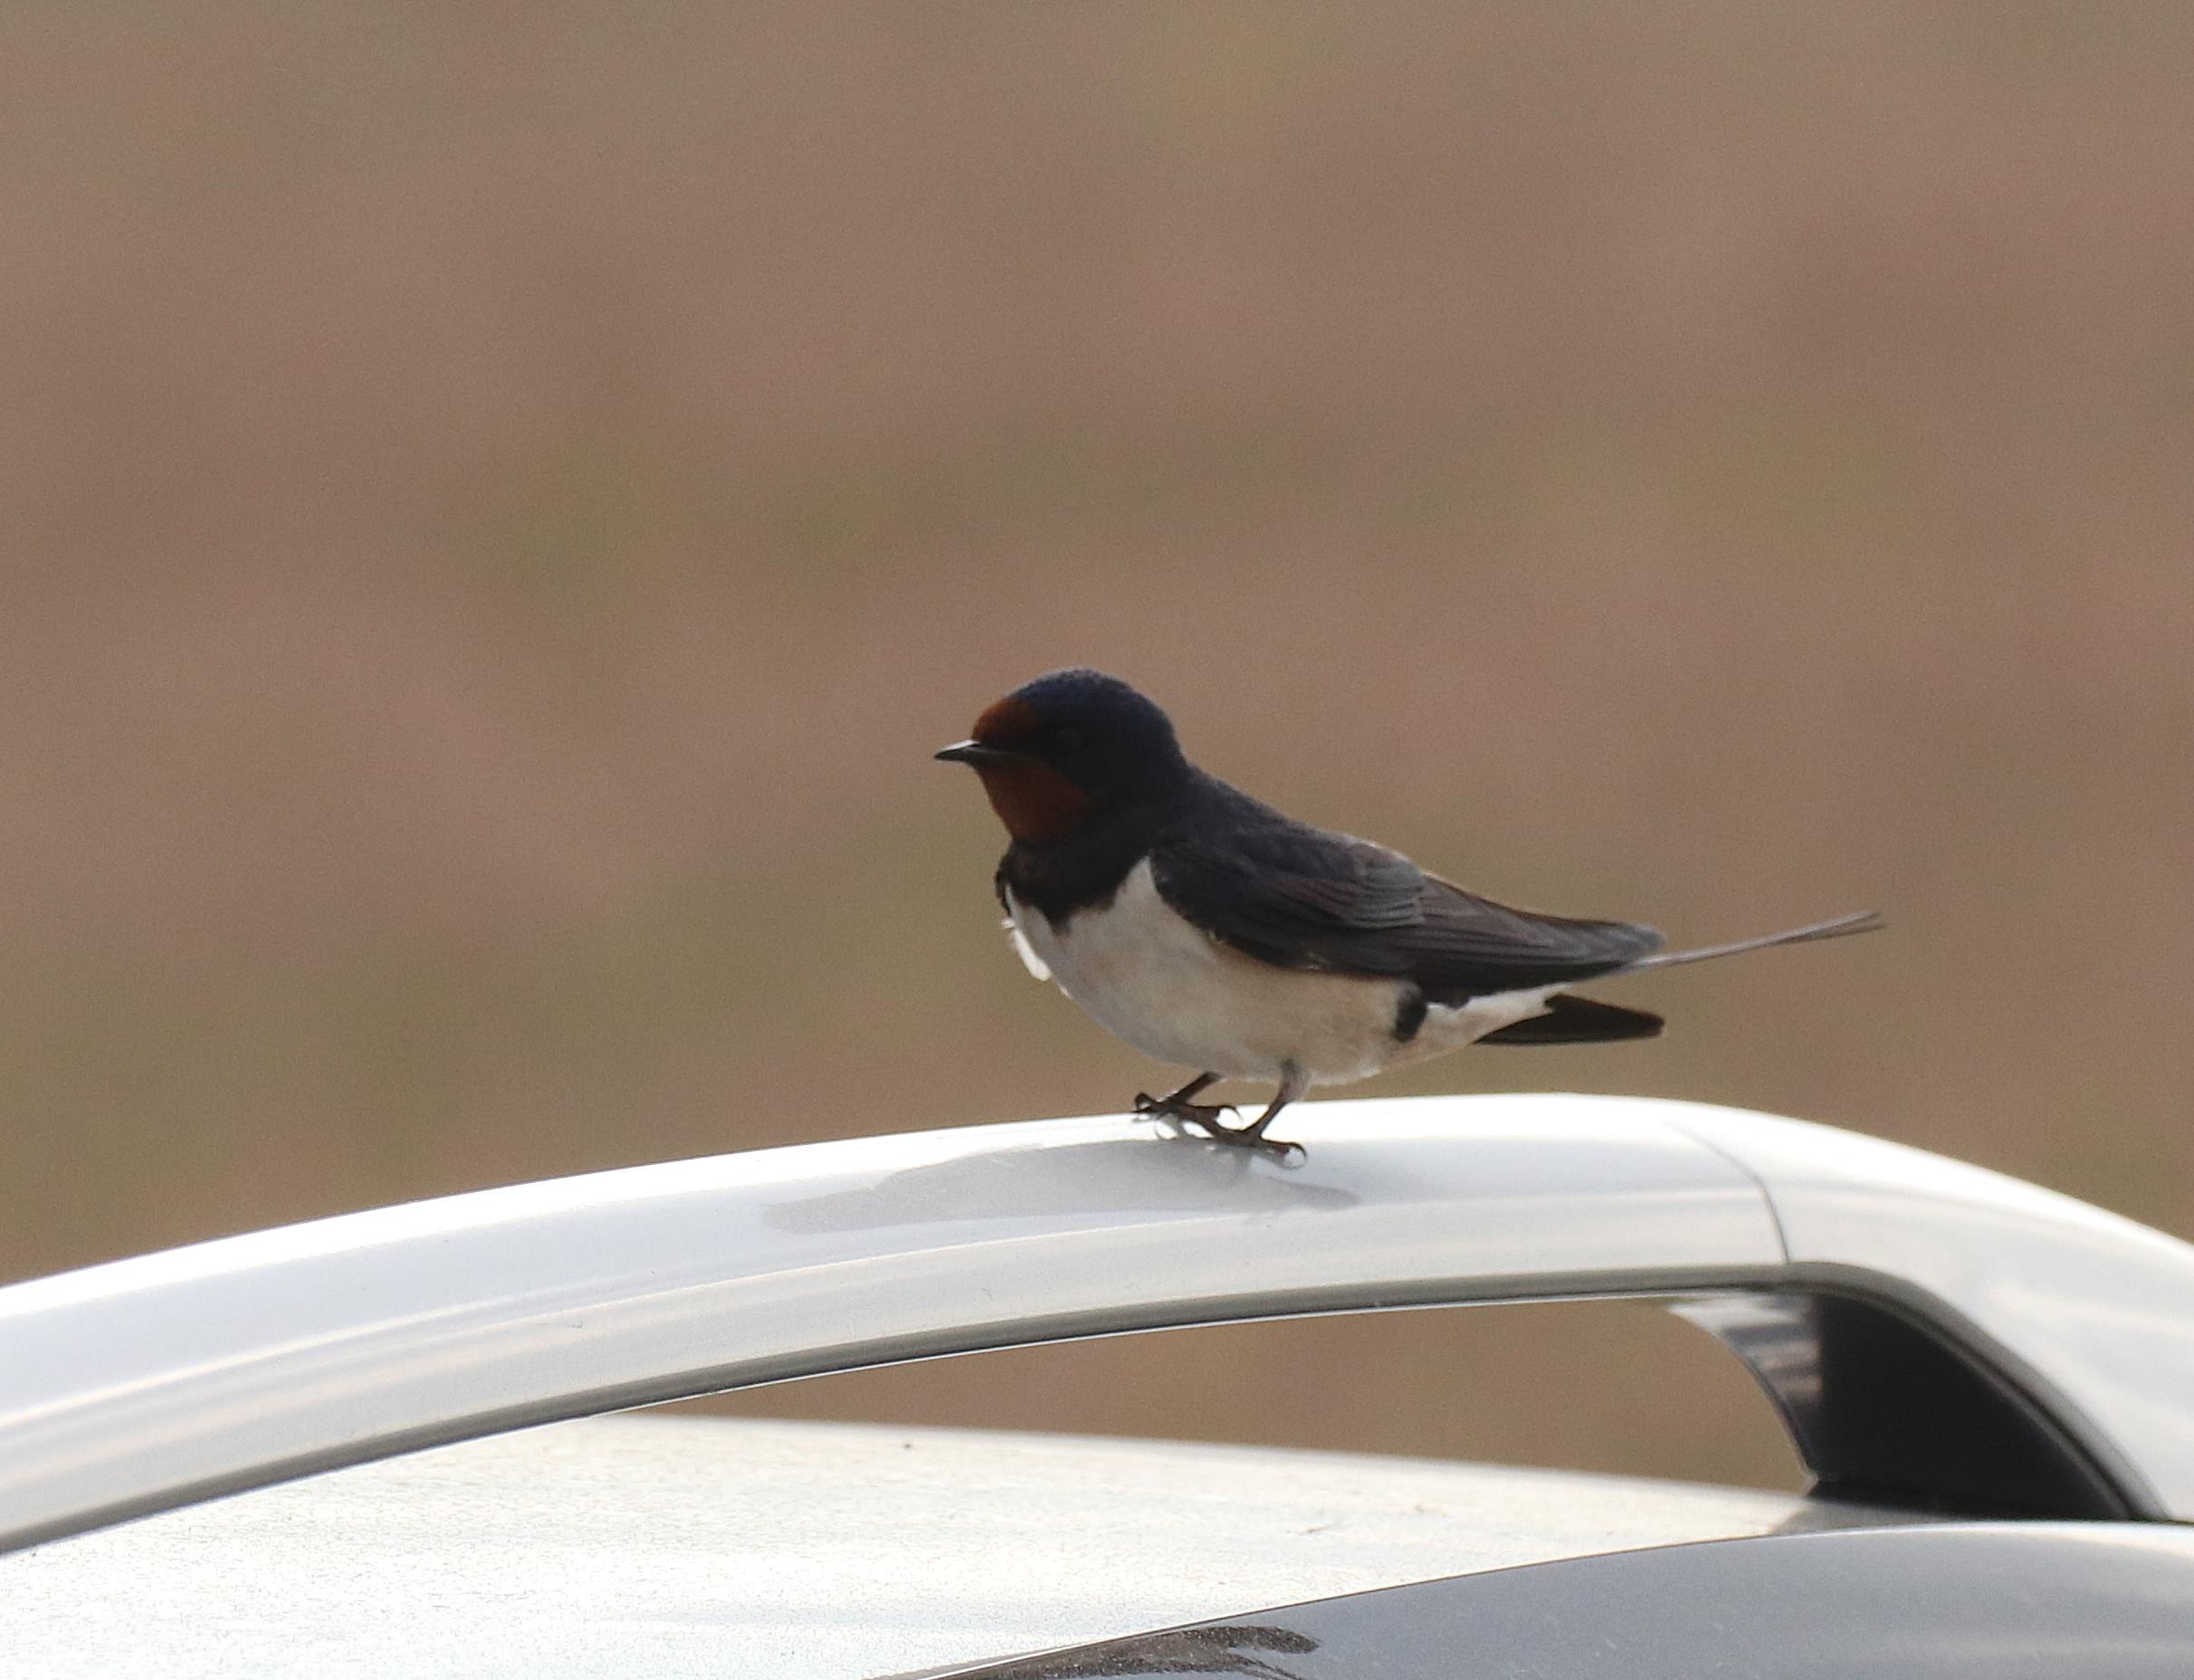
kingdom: Animalia
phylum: Chordata
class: Aves
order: Passeriformes
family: Hirundinidae
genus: Hirundo
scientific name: Hirundo rustica
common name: Landsvale
